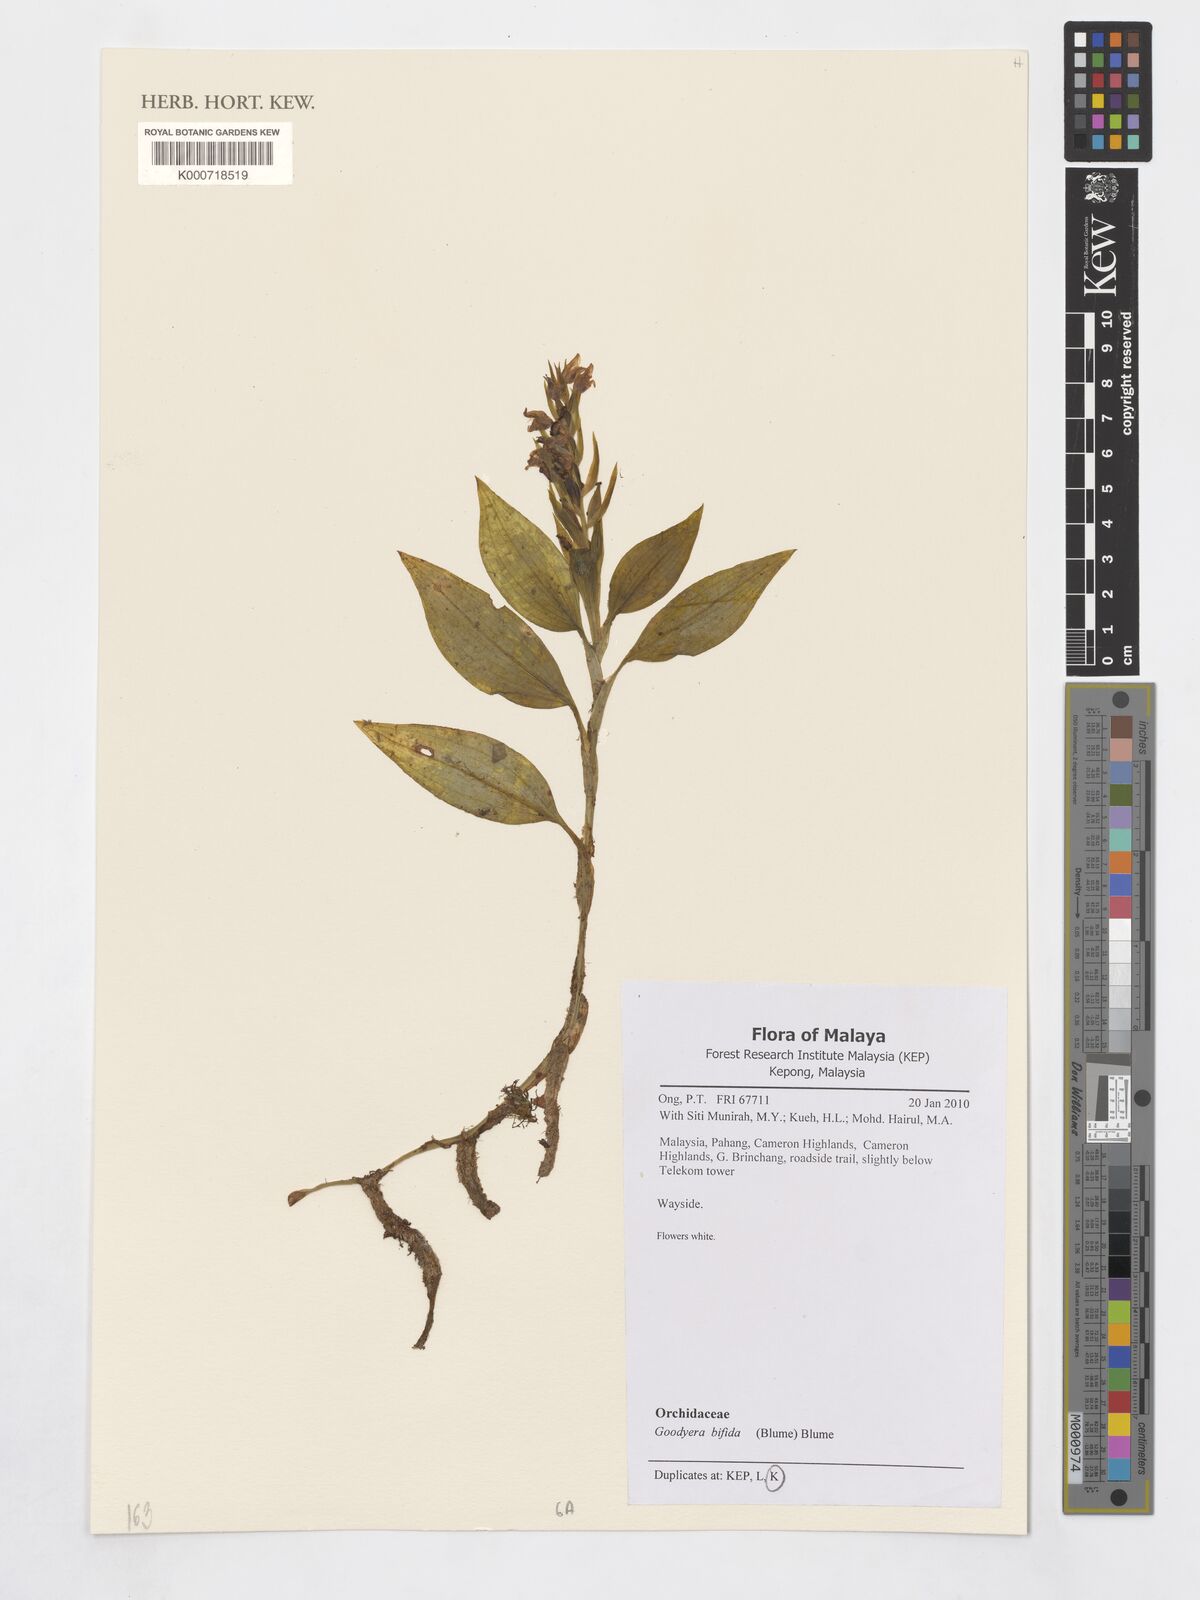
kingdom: Plantae
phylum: Tracheophyta
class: Liliopsida
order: Asparagales
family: Orchidaceae
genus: Goodyera
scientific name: Goodyera bifida
